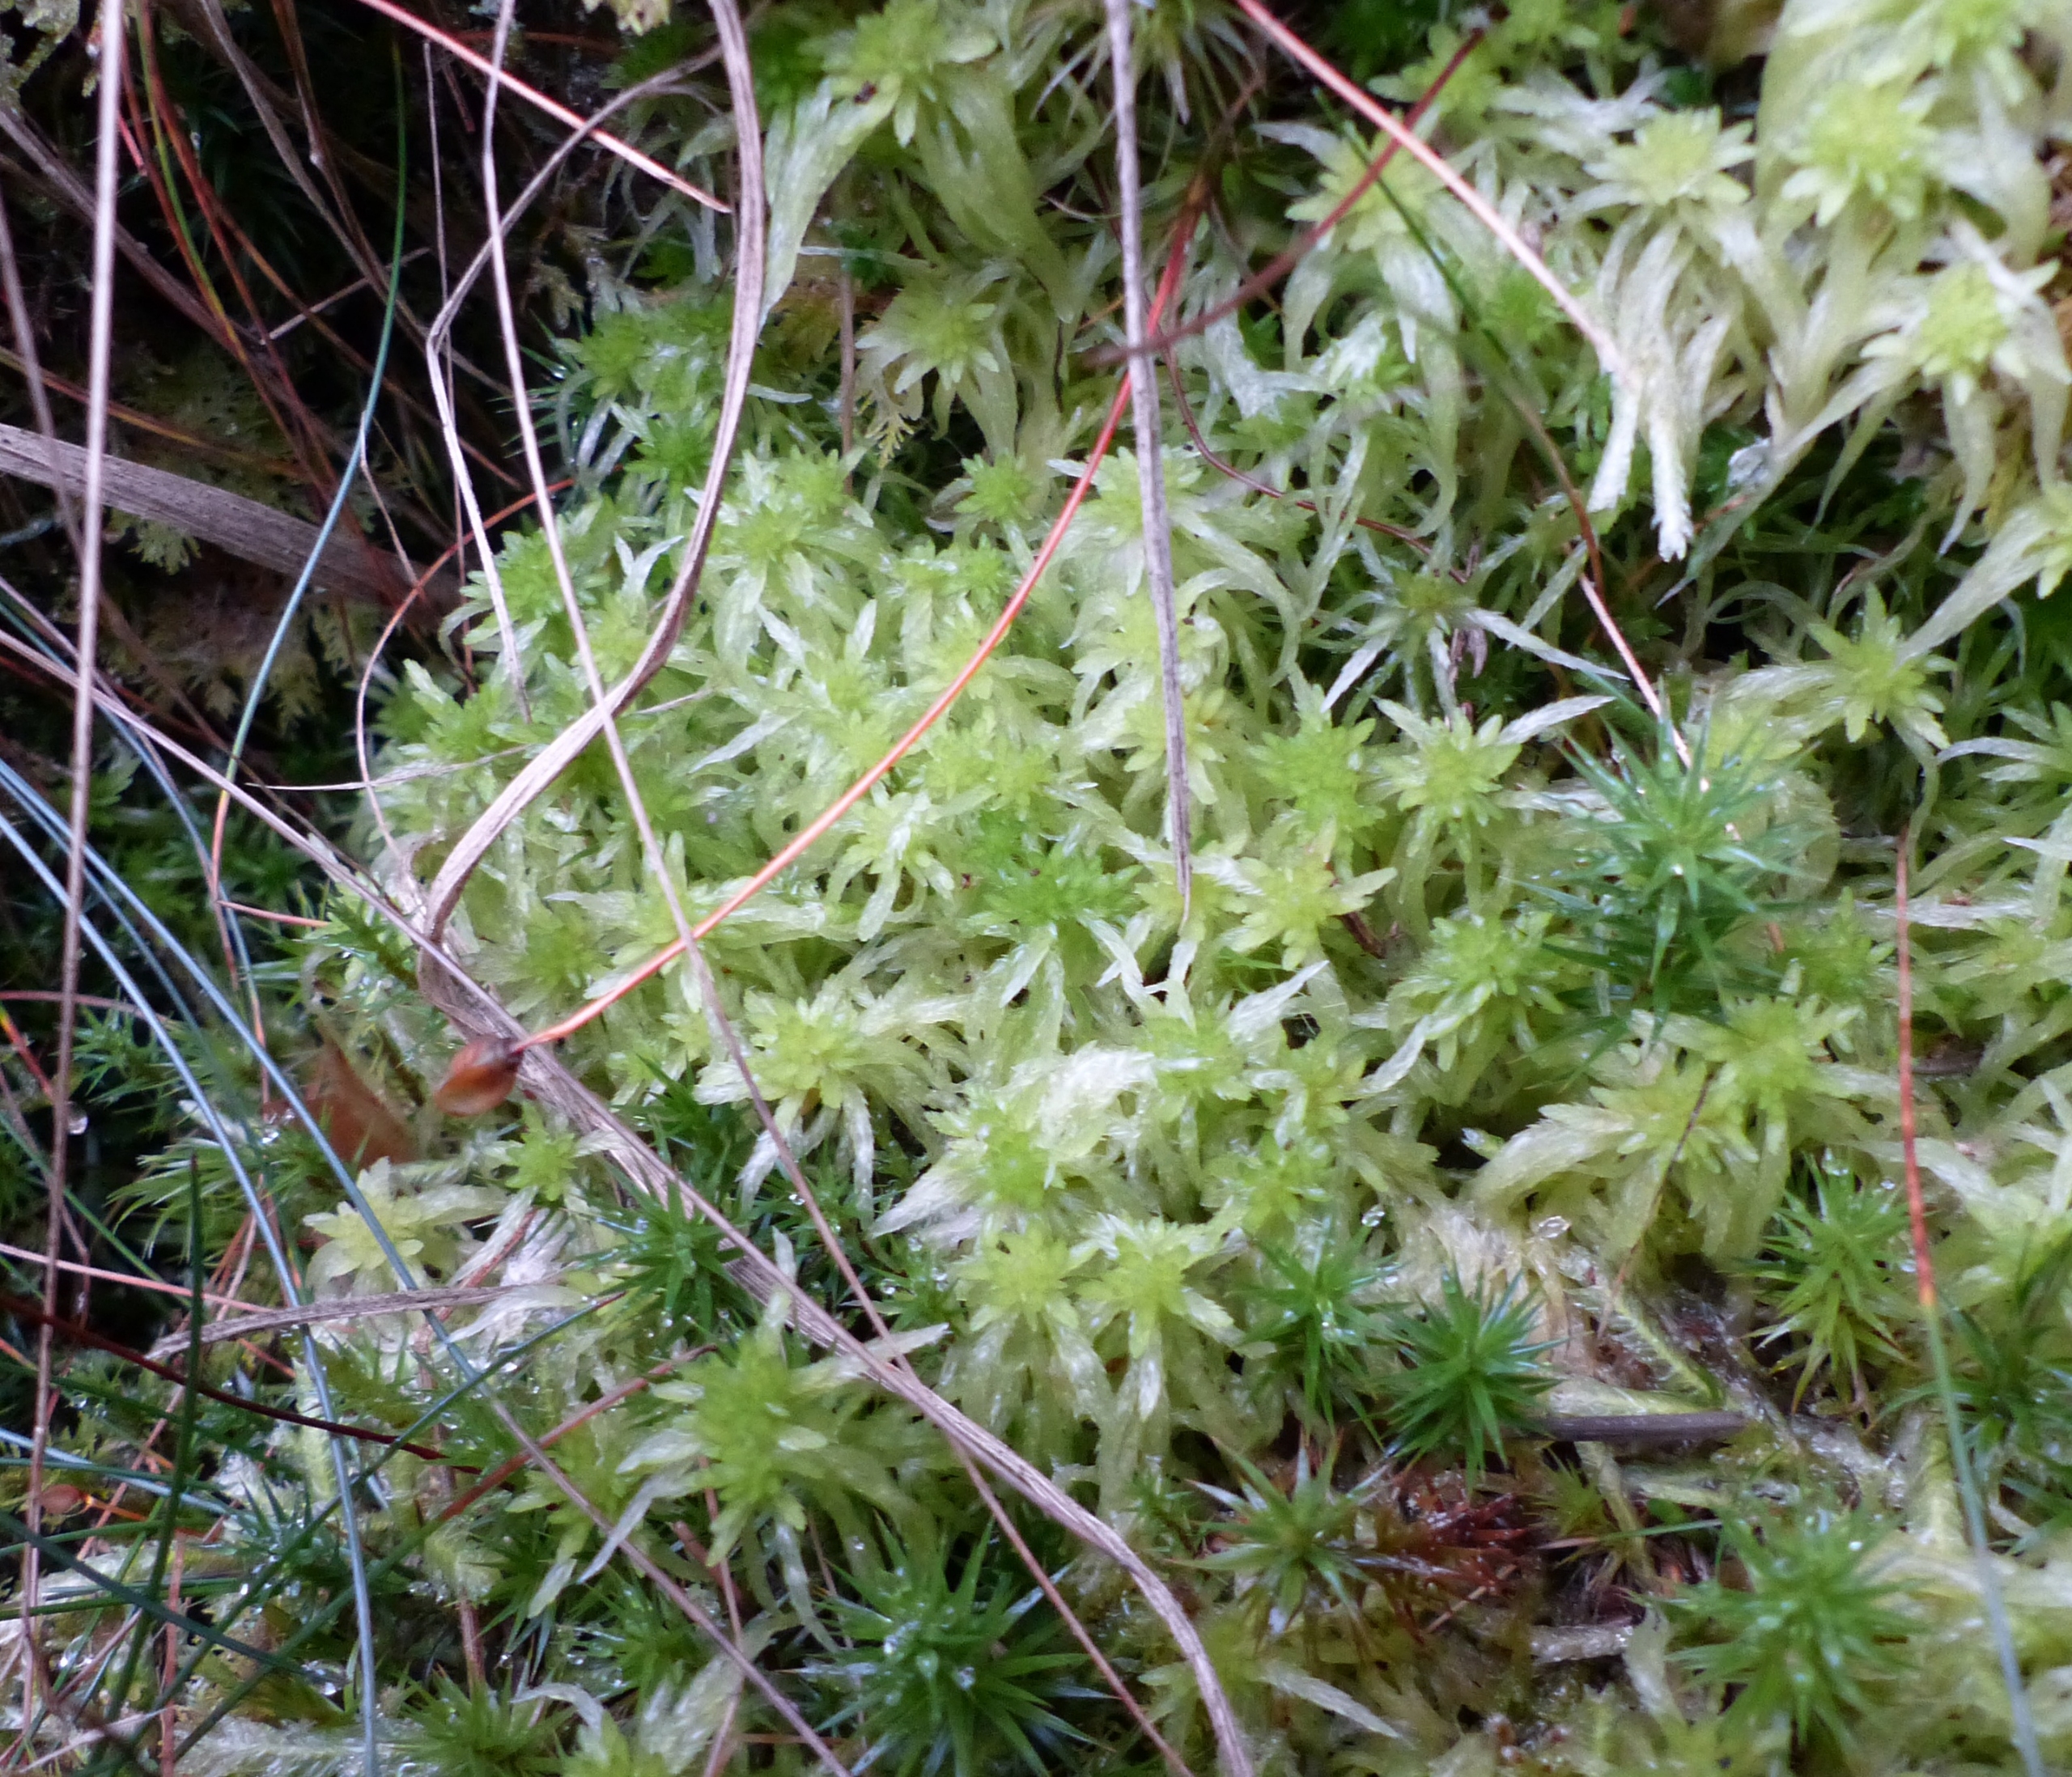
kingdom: Plantae
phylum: Bryophyta
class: Sphagnopsida
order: Sphagnales
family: Sphagnaceae
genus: Sphagnum
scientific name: Sphagnum fimbriatum
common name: Frynset tørvemos
